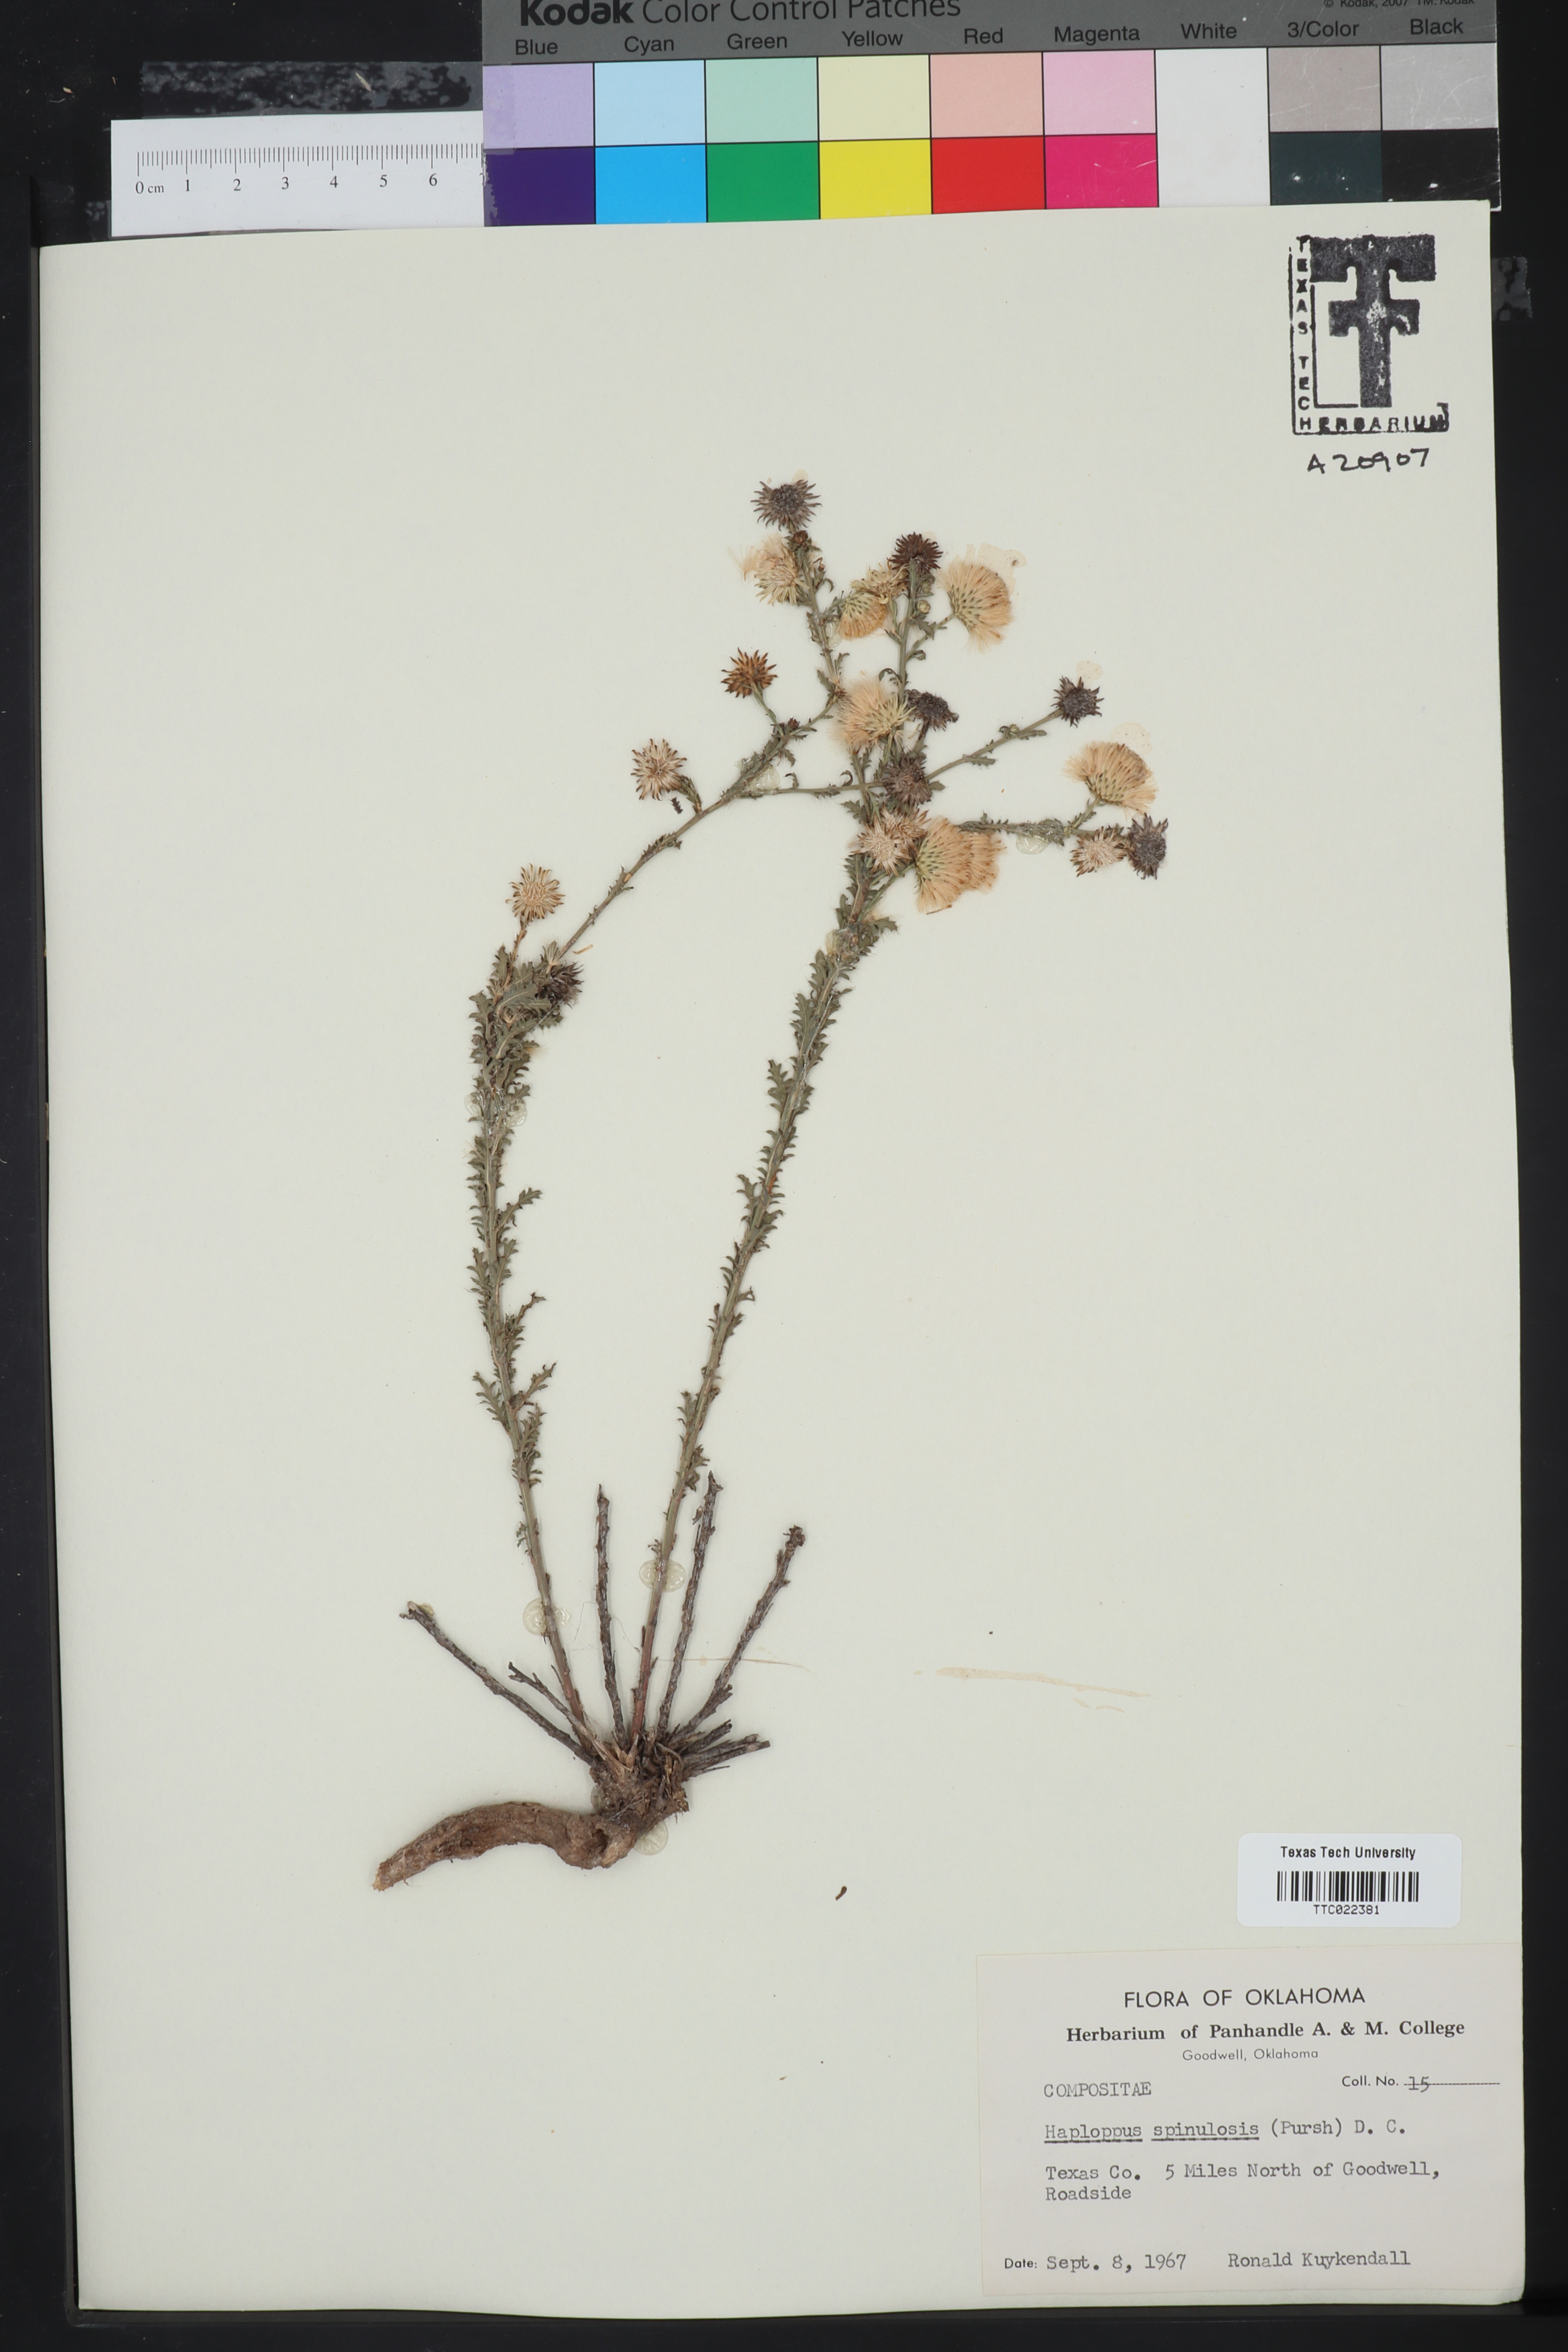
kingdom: Plantae
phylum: Tracheophyta
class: Magnoliopsida
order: Asterales
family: Asteraceae
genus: Xanthisma
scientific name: Xanthisma spinulosum
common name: Spiny goldenweed
